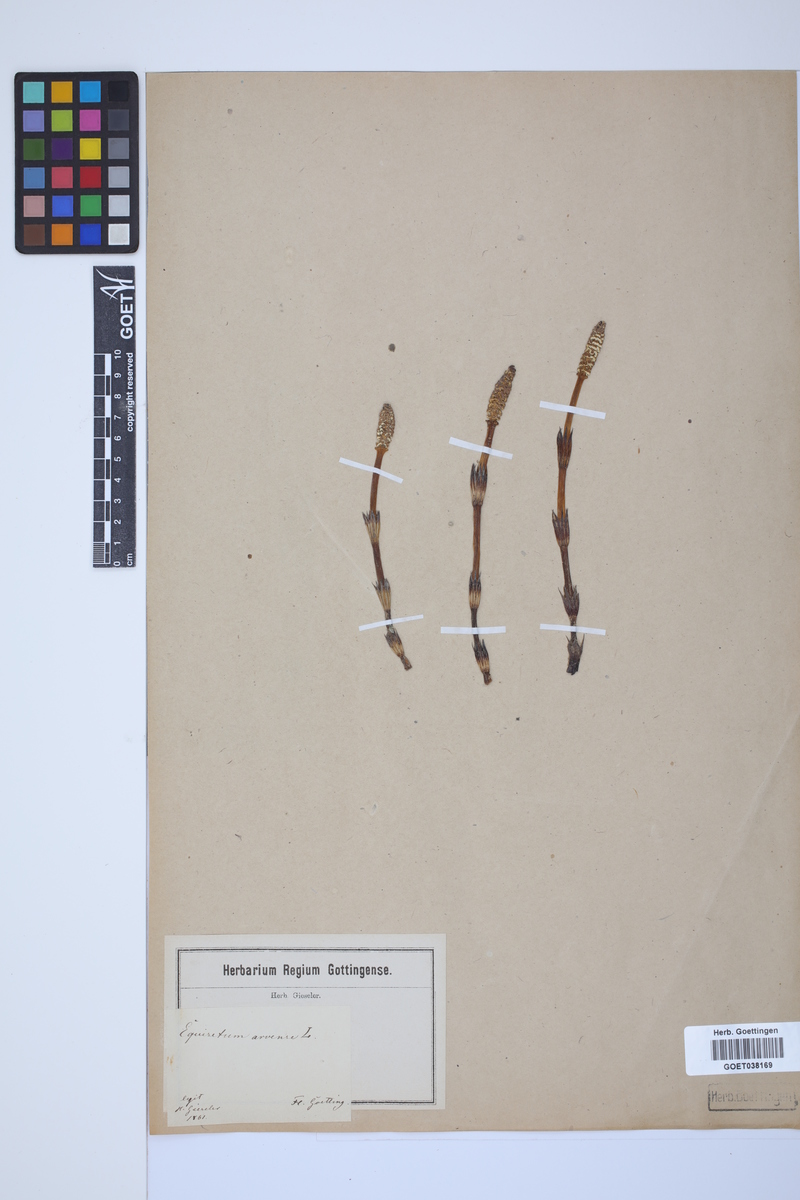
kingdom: Plantae
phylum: Tracheophyta
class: Polypodiopsida
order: Equisetales
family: Equisetaceae
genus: Equisetum
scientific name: Equisetum arvense
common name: Field horsetail
